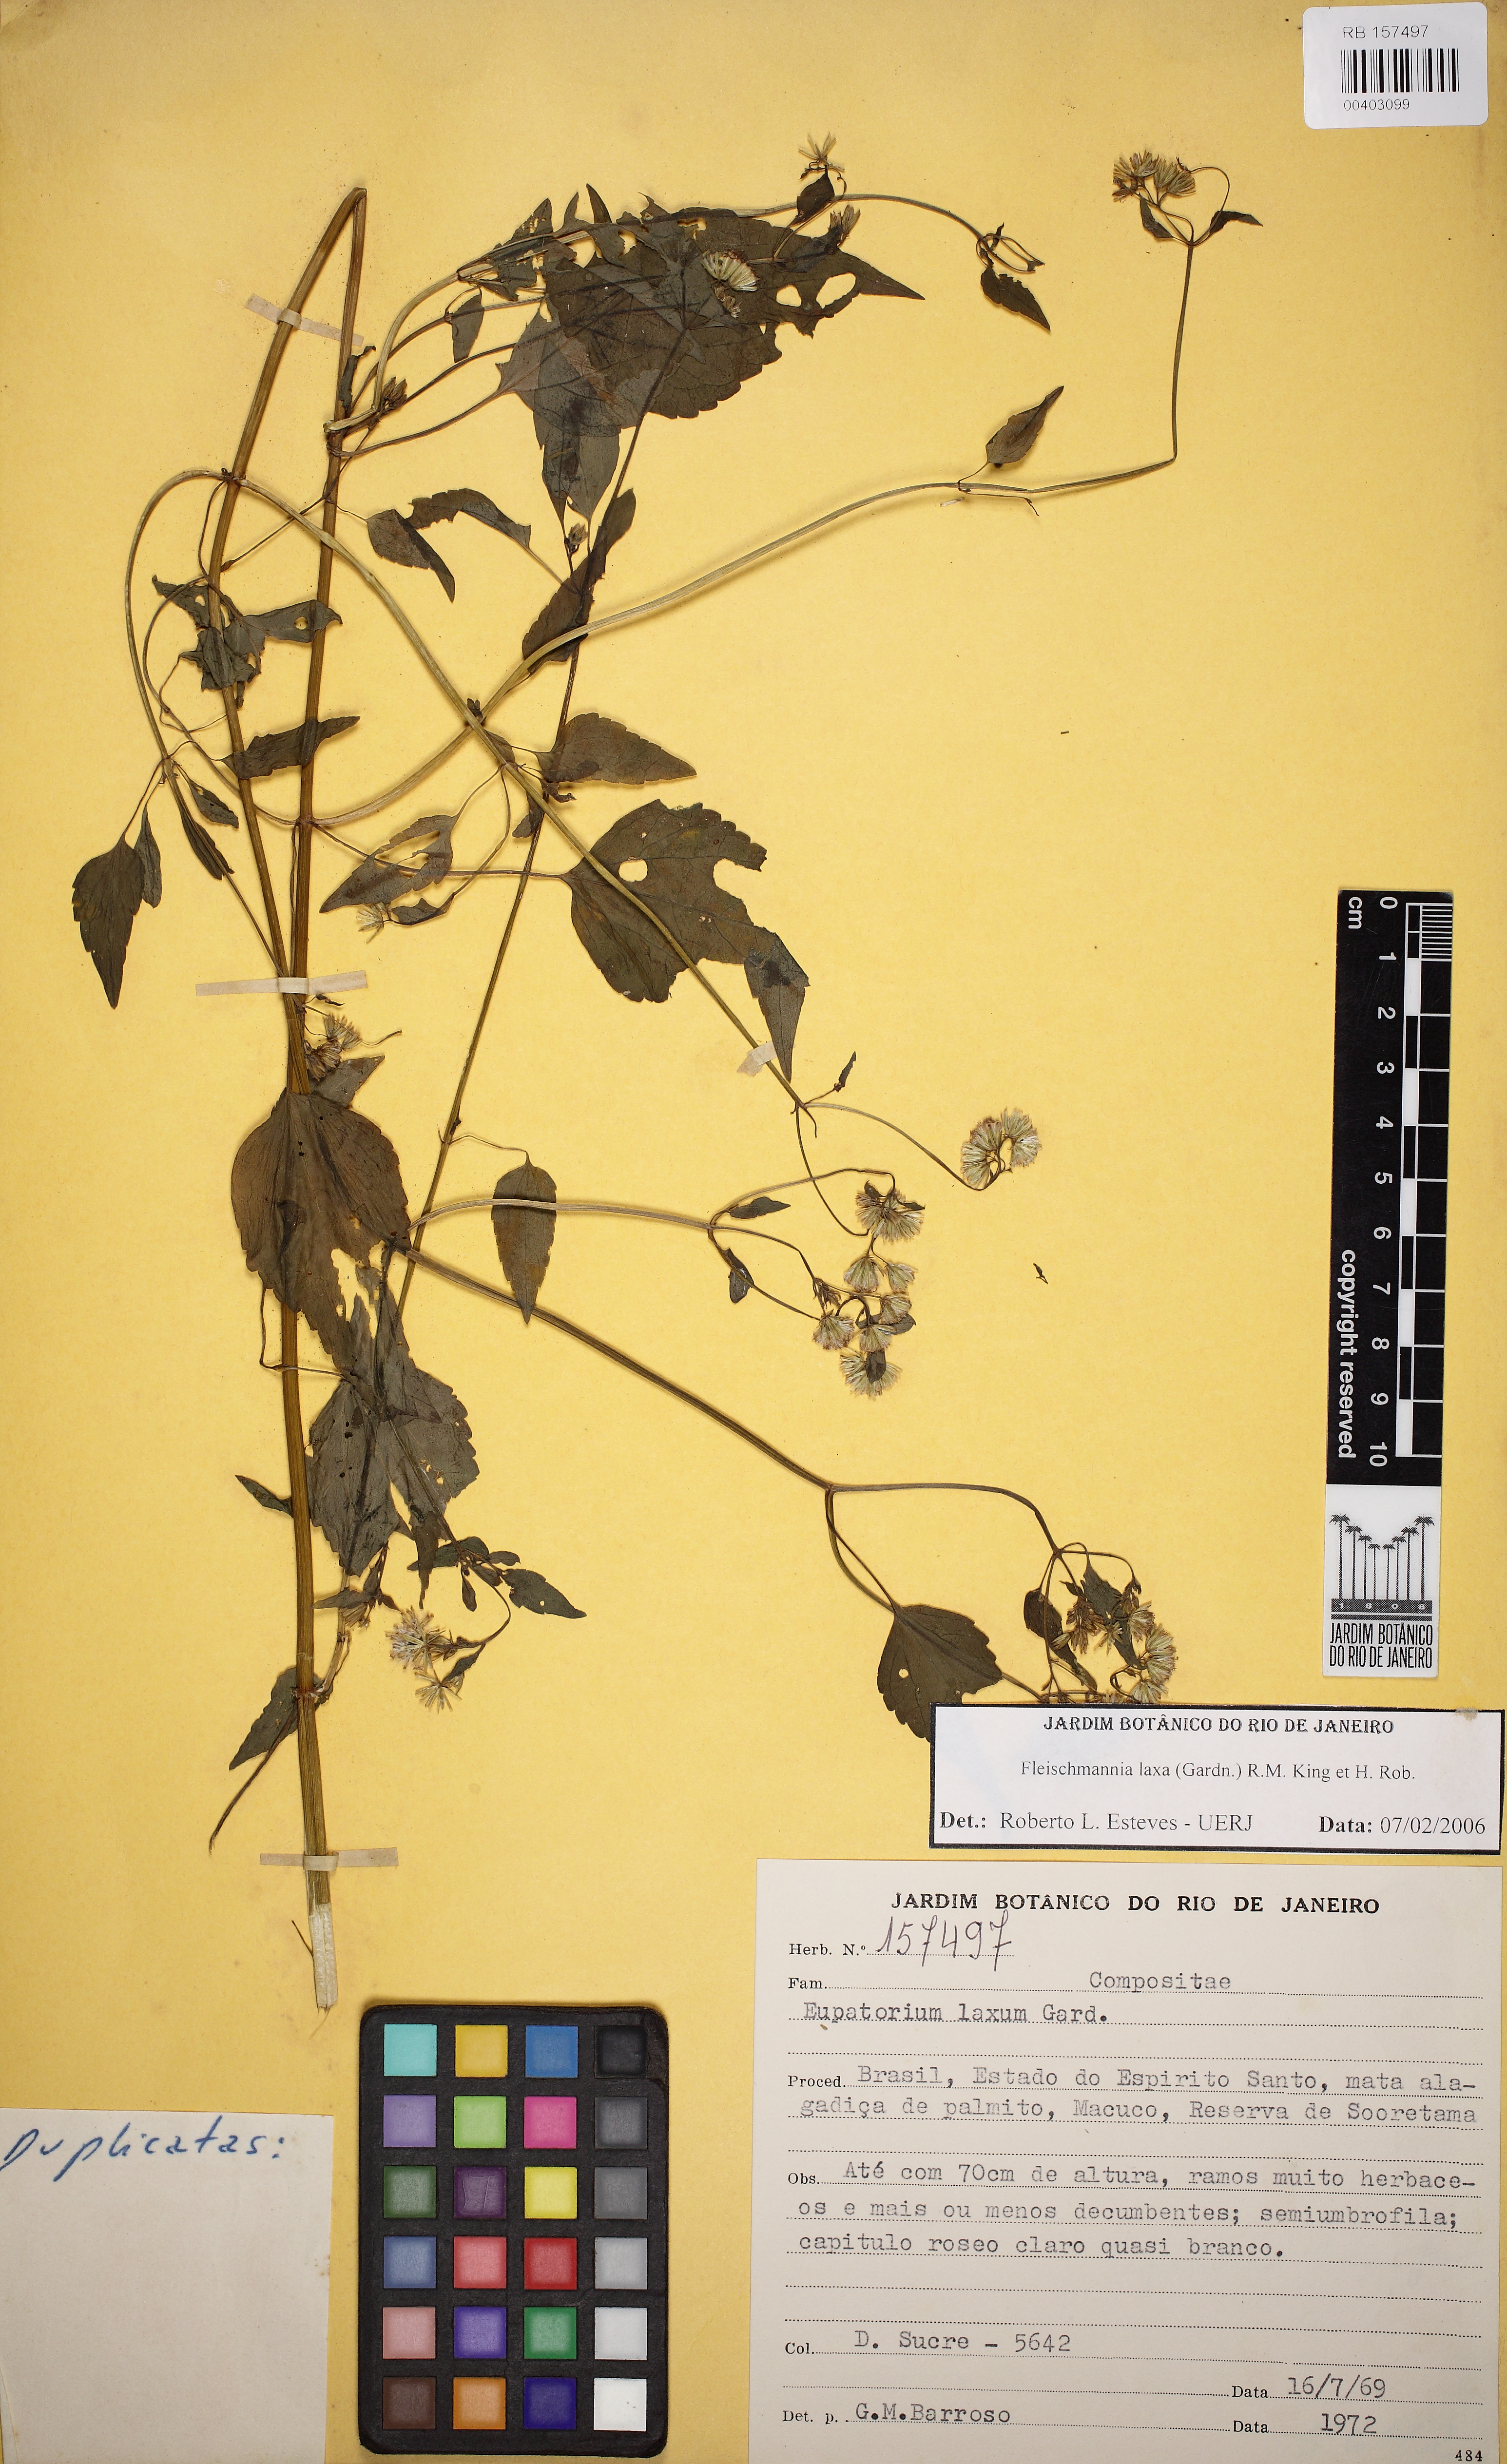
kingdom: Plantae
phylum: Tracheophyta
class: Magnoliopsida
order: Asterales
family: Asteraceae
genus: Fleischmannia
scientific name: Fleischmannia laxa
